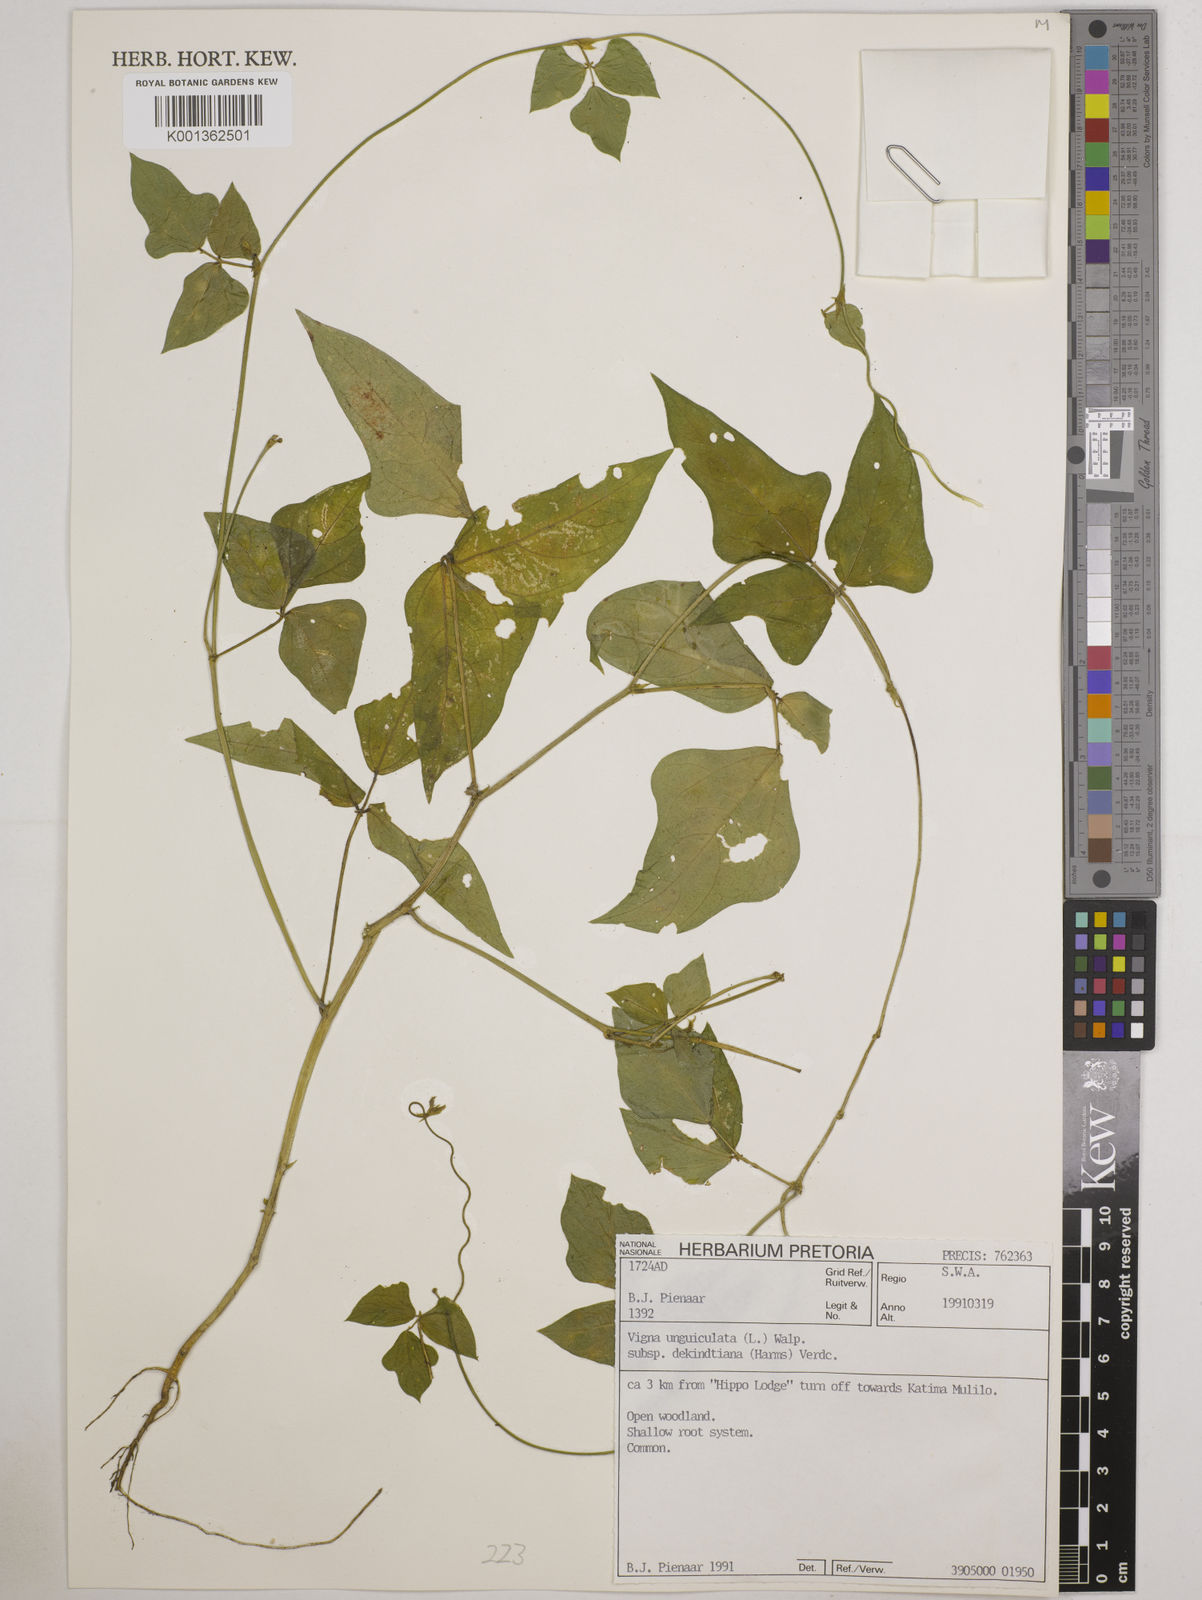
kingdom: Plantae
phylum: Tracheophyta
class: Magnoliopsida
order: Fabales
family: Fabaceae
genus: Vigna
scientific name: Vigna
